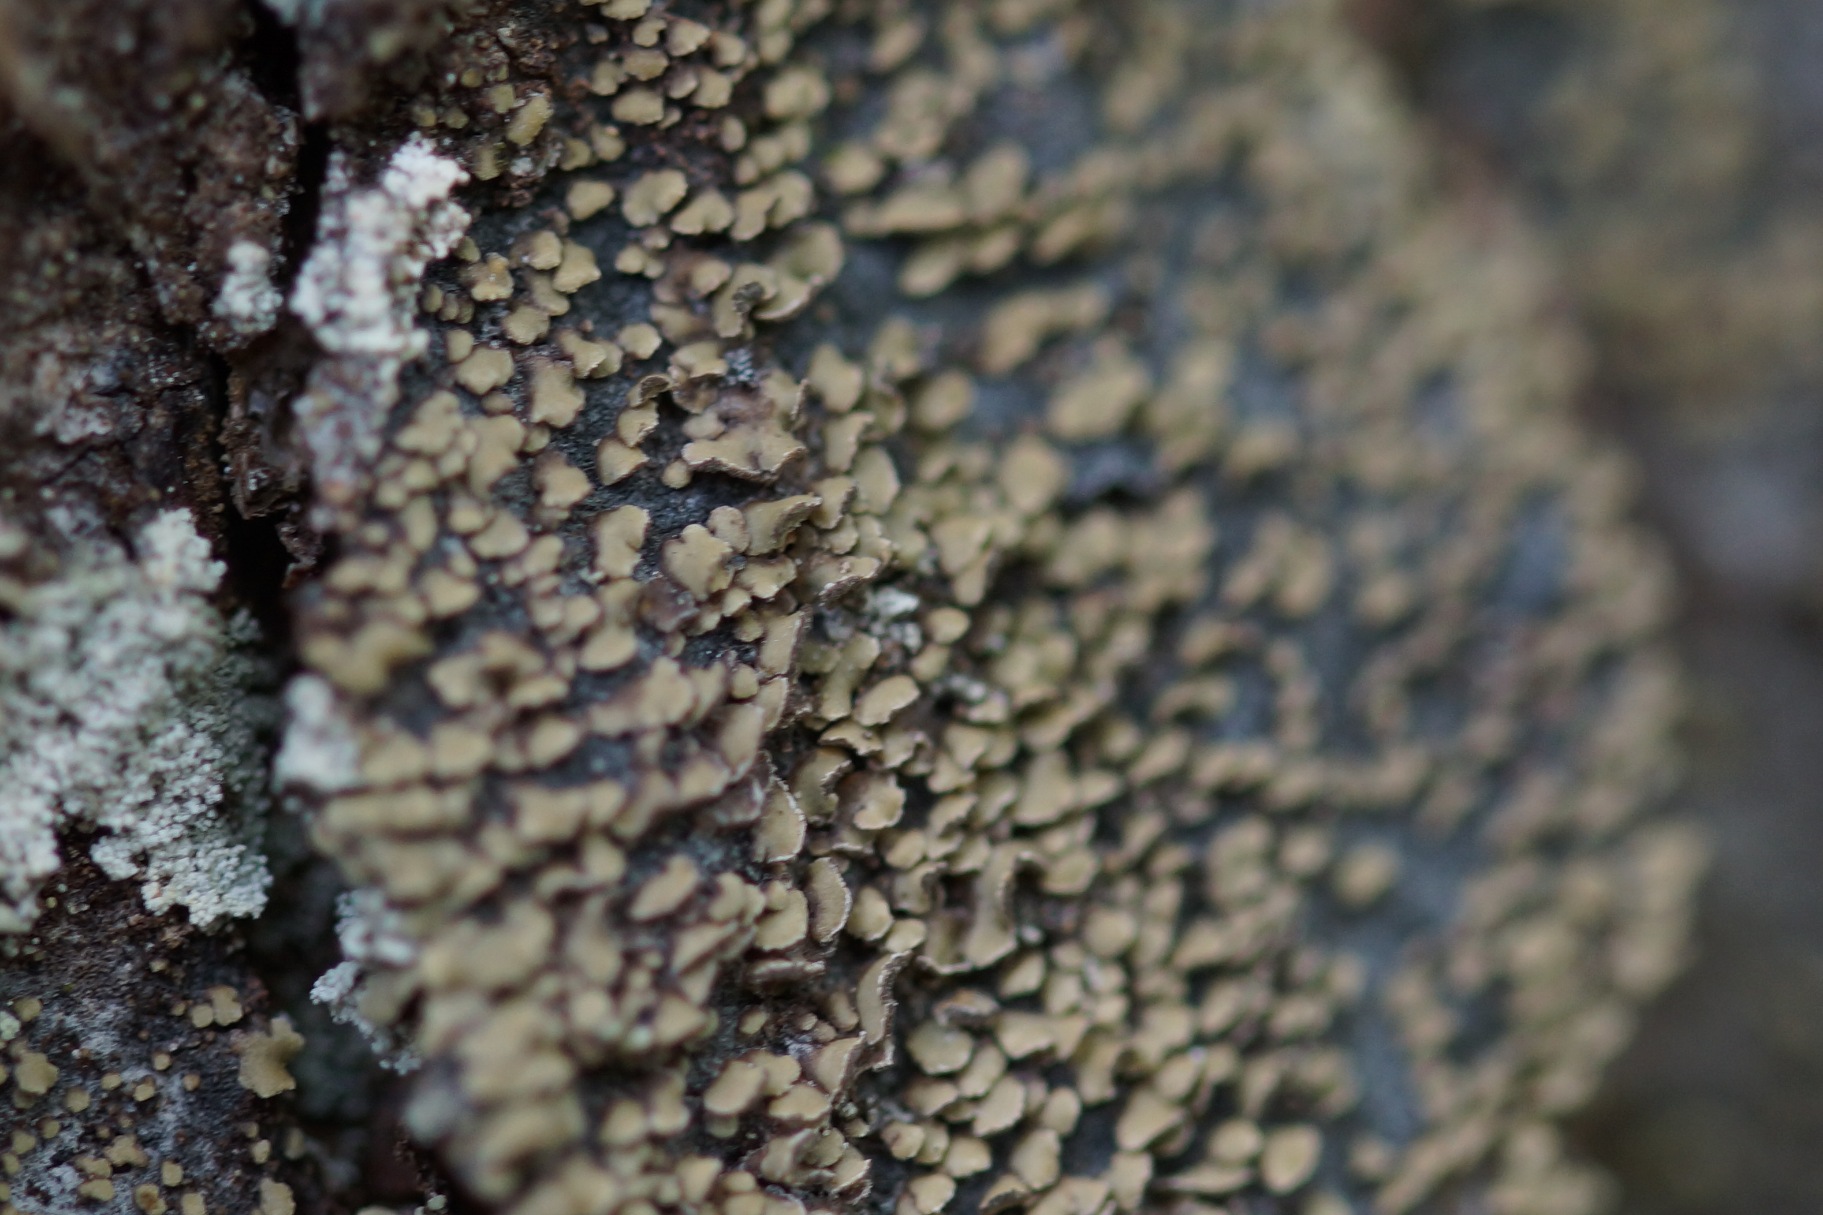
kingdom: Fungi
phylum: Ascomycota
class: Lecanoromycetes
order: Umbilicariales
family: Ophioparmaceae
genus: Hypocenomyce
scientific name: Hypocenomyce scalaris
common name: Småskællet muslinglav
